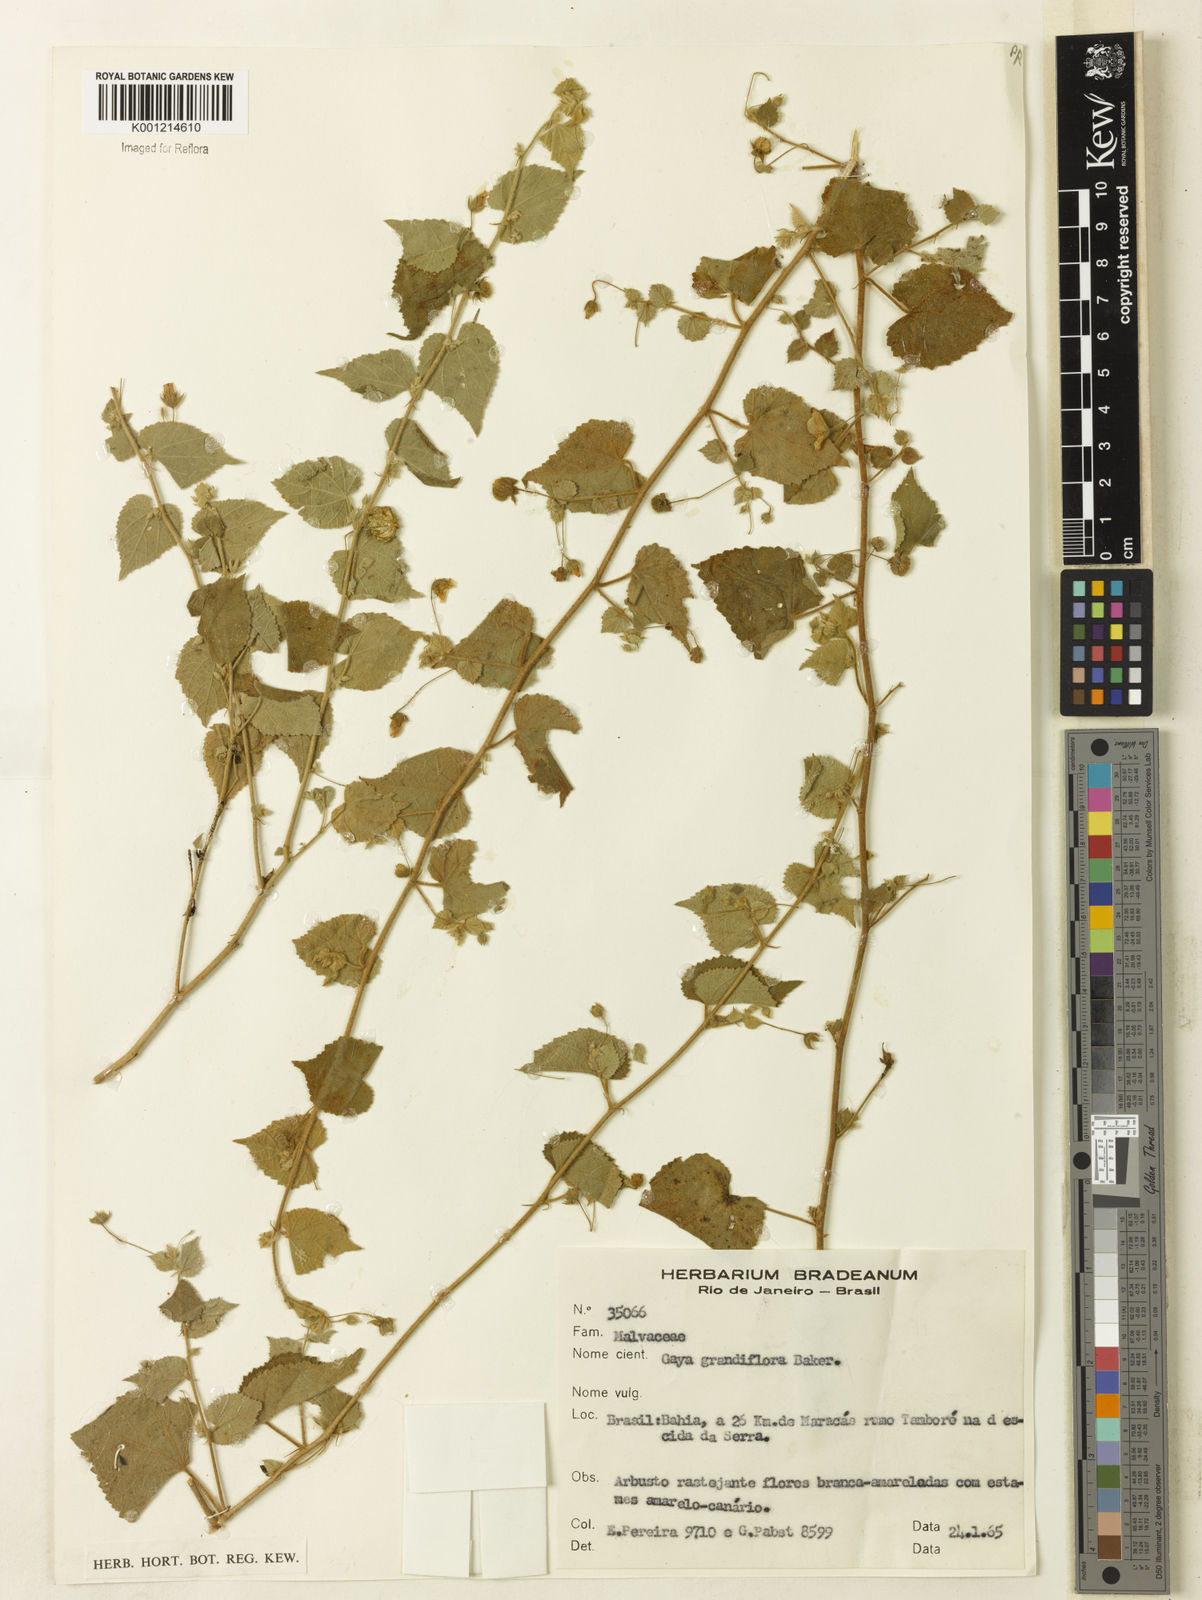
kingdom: Plantae
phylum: Tracheophyta
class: Magnoliopsida
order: Malvales
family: Malvaceae
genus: Gaya
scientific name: Gaya grandiflora
